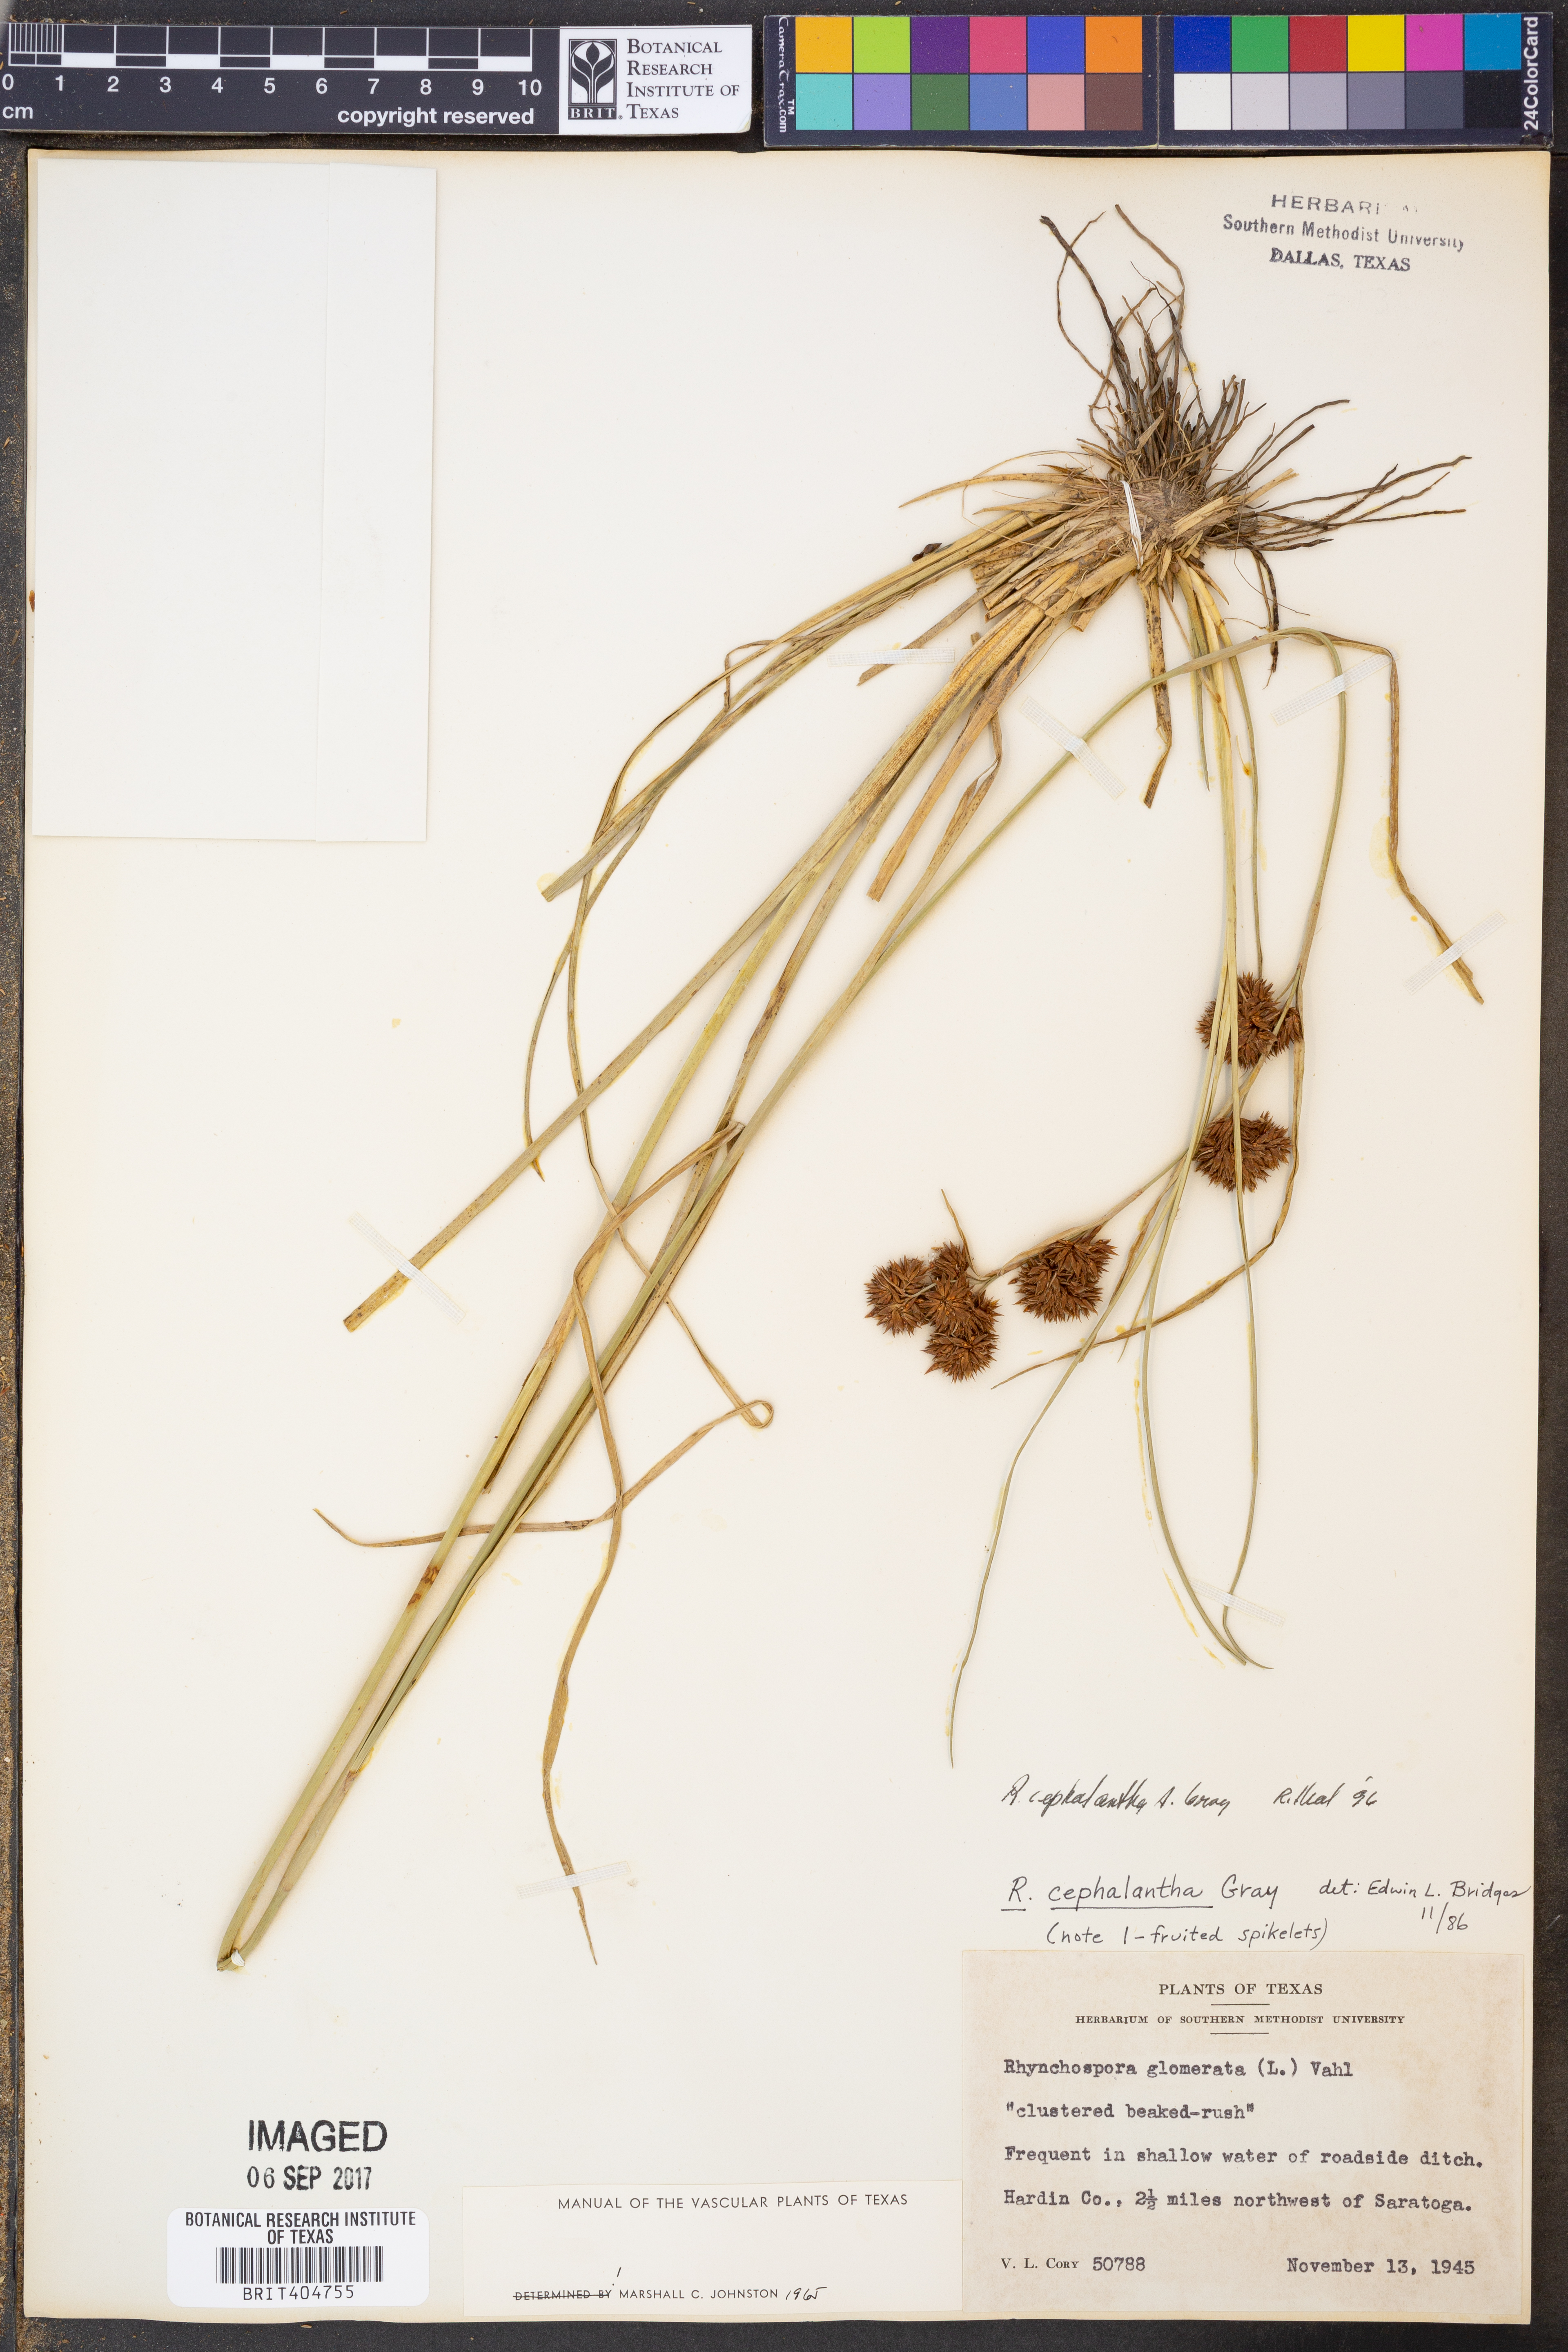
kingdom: Plantae
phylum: Tracheophyta
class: Liliopsida
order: Poales
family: Cyperaceae
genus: Rhynchospora
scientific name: Rhynchospora glomerata
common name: Cluster beak sedge
